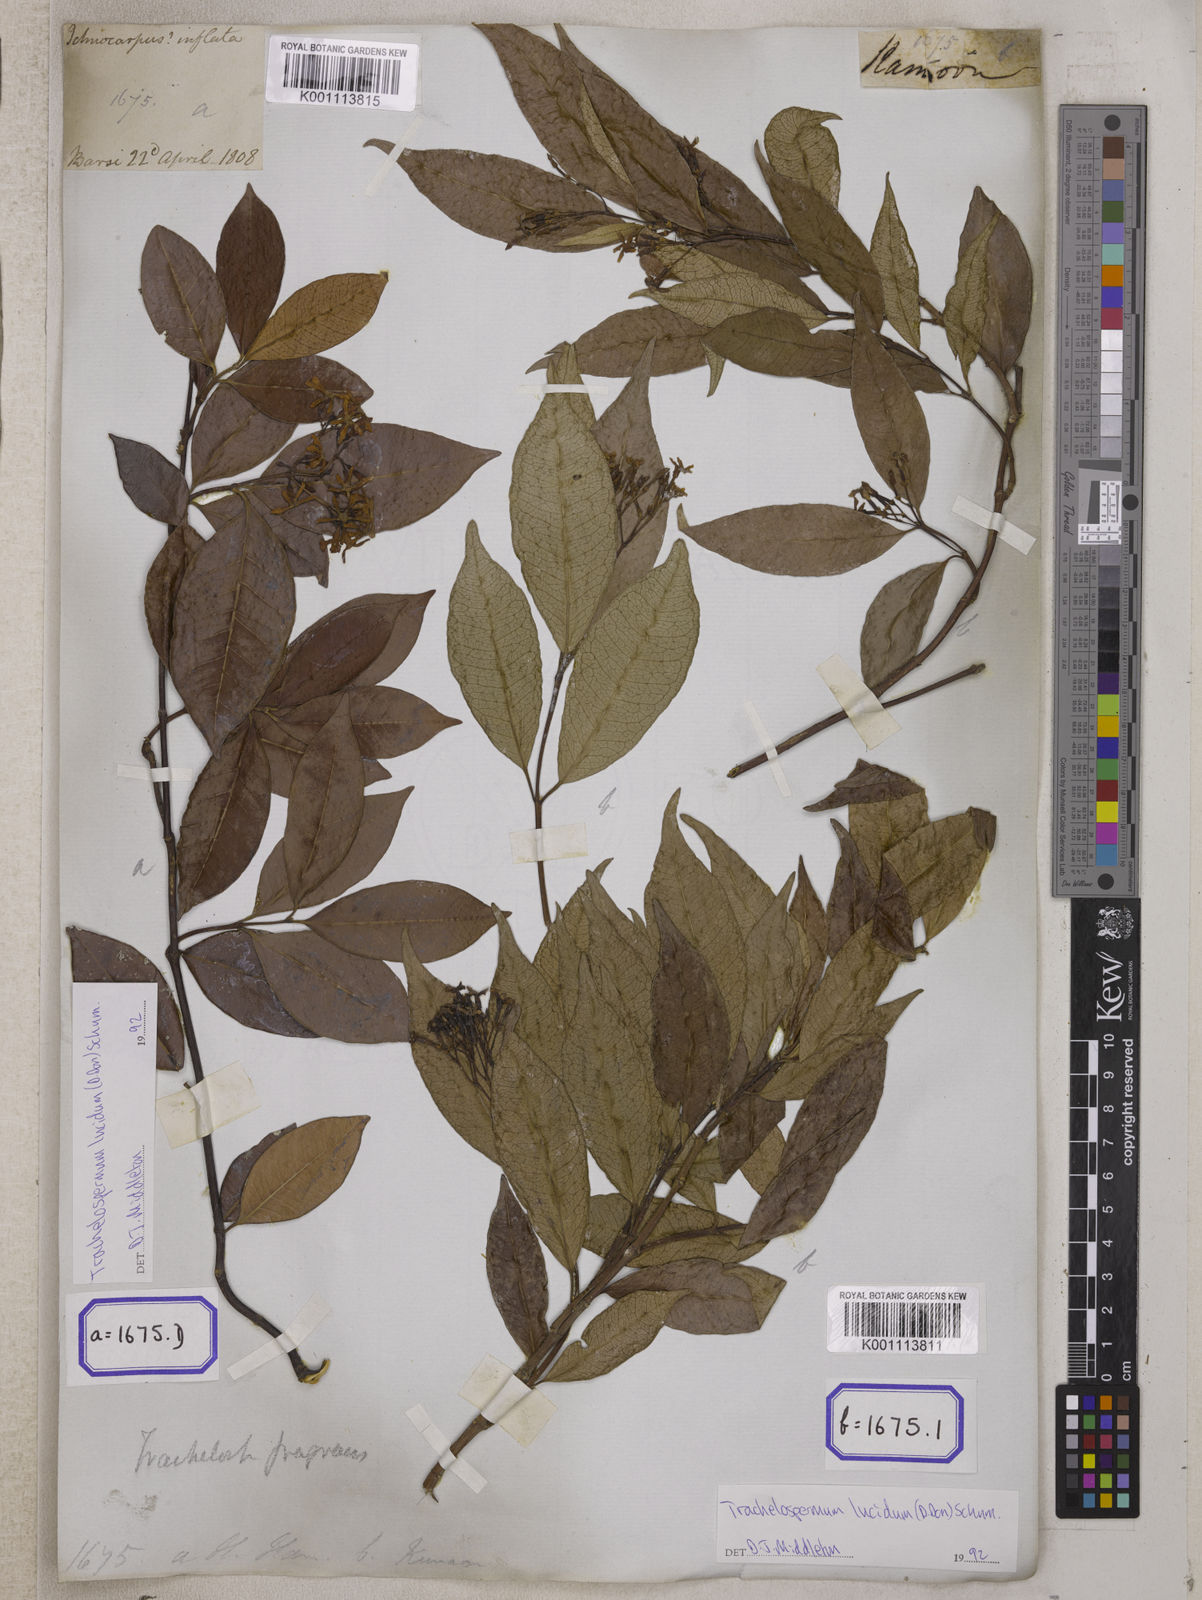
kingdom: Plantae
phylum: Tracheophyta
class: Magnoliopsida
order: Gentianales
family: Apocynaceae
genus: Ichnocarpus
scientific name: Ichnocarpus
